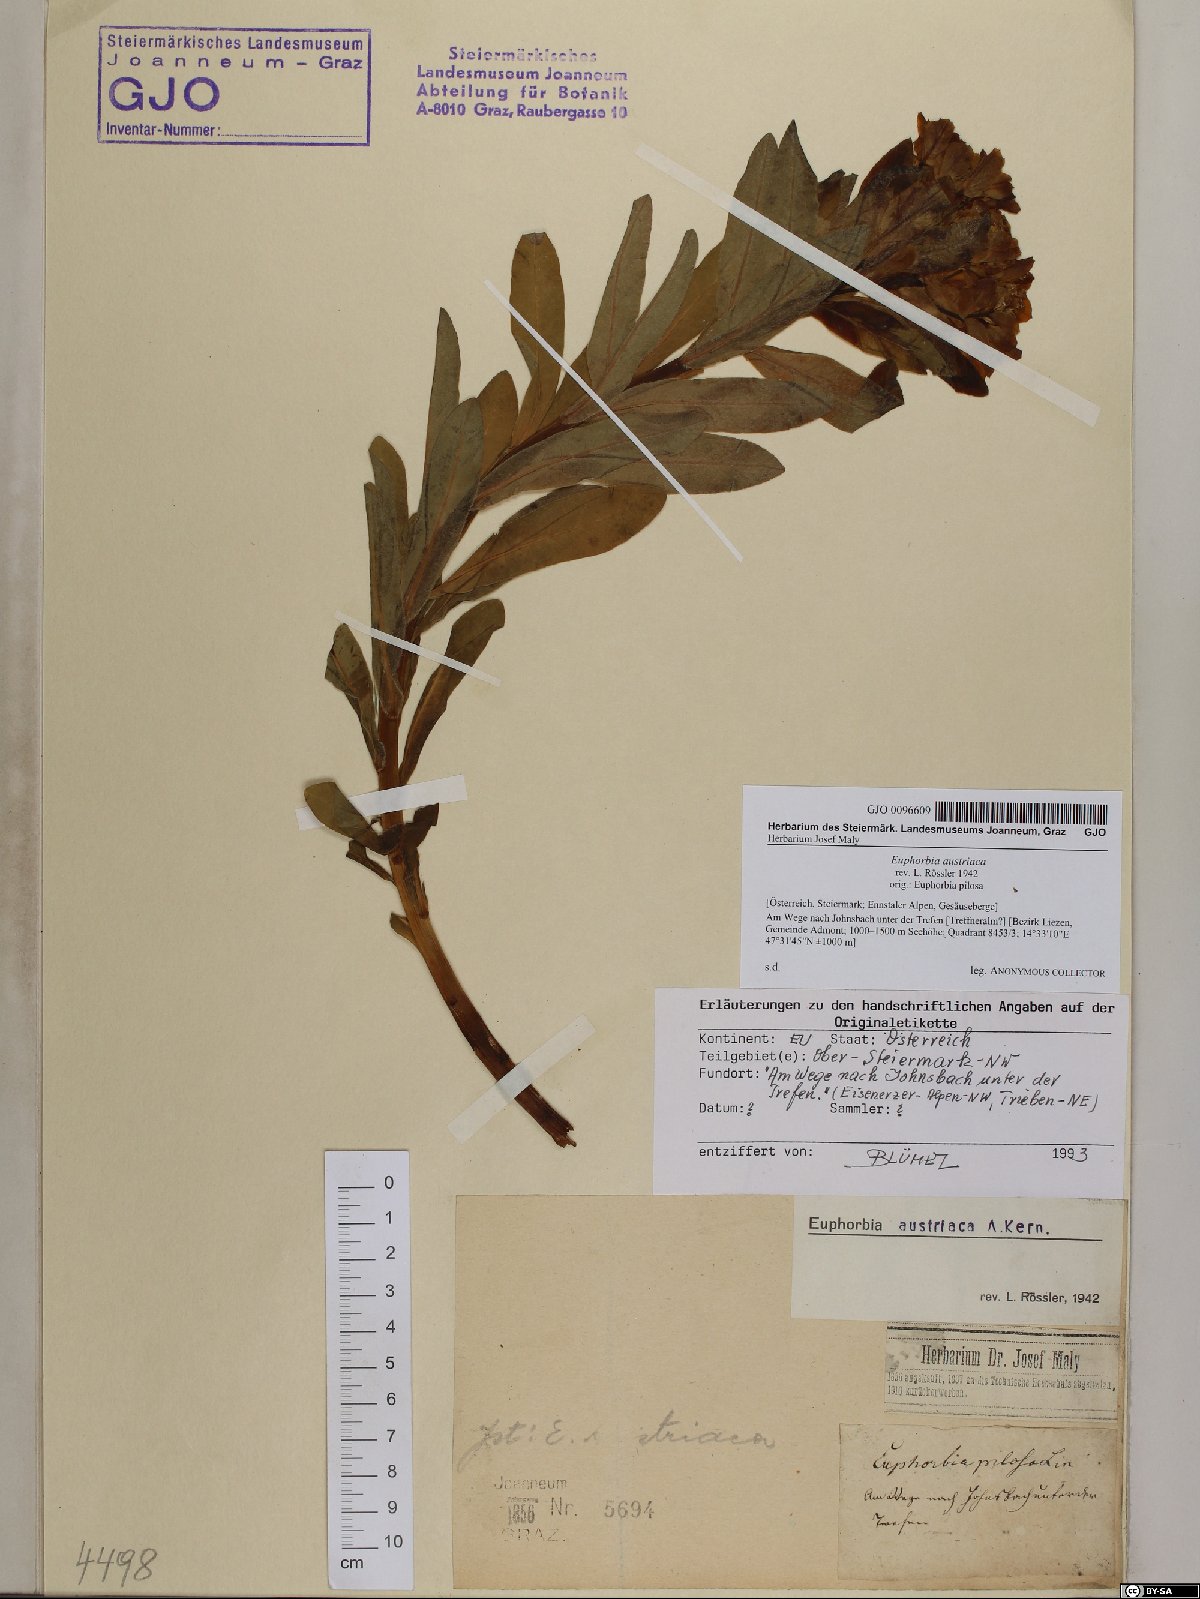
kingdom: Plantae
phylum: Tracheophyta
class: Magnoliopsida
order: Malpighiales
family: Euphorbiaceae
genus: Euphorbia
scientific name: Euphorbia austriaca
